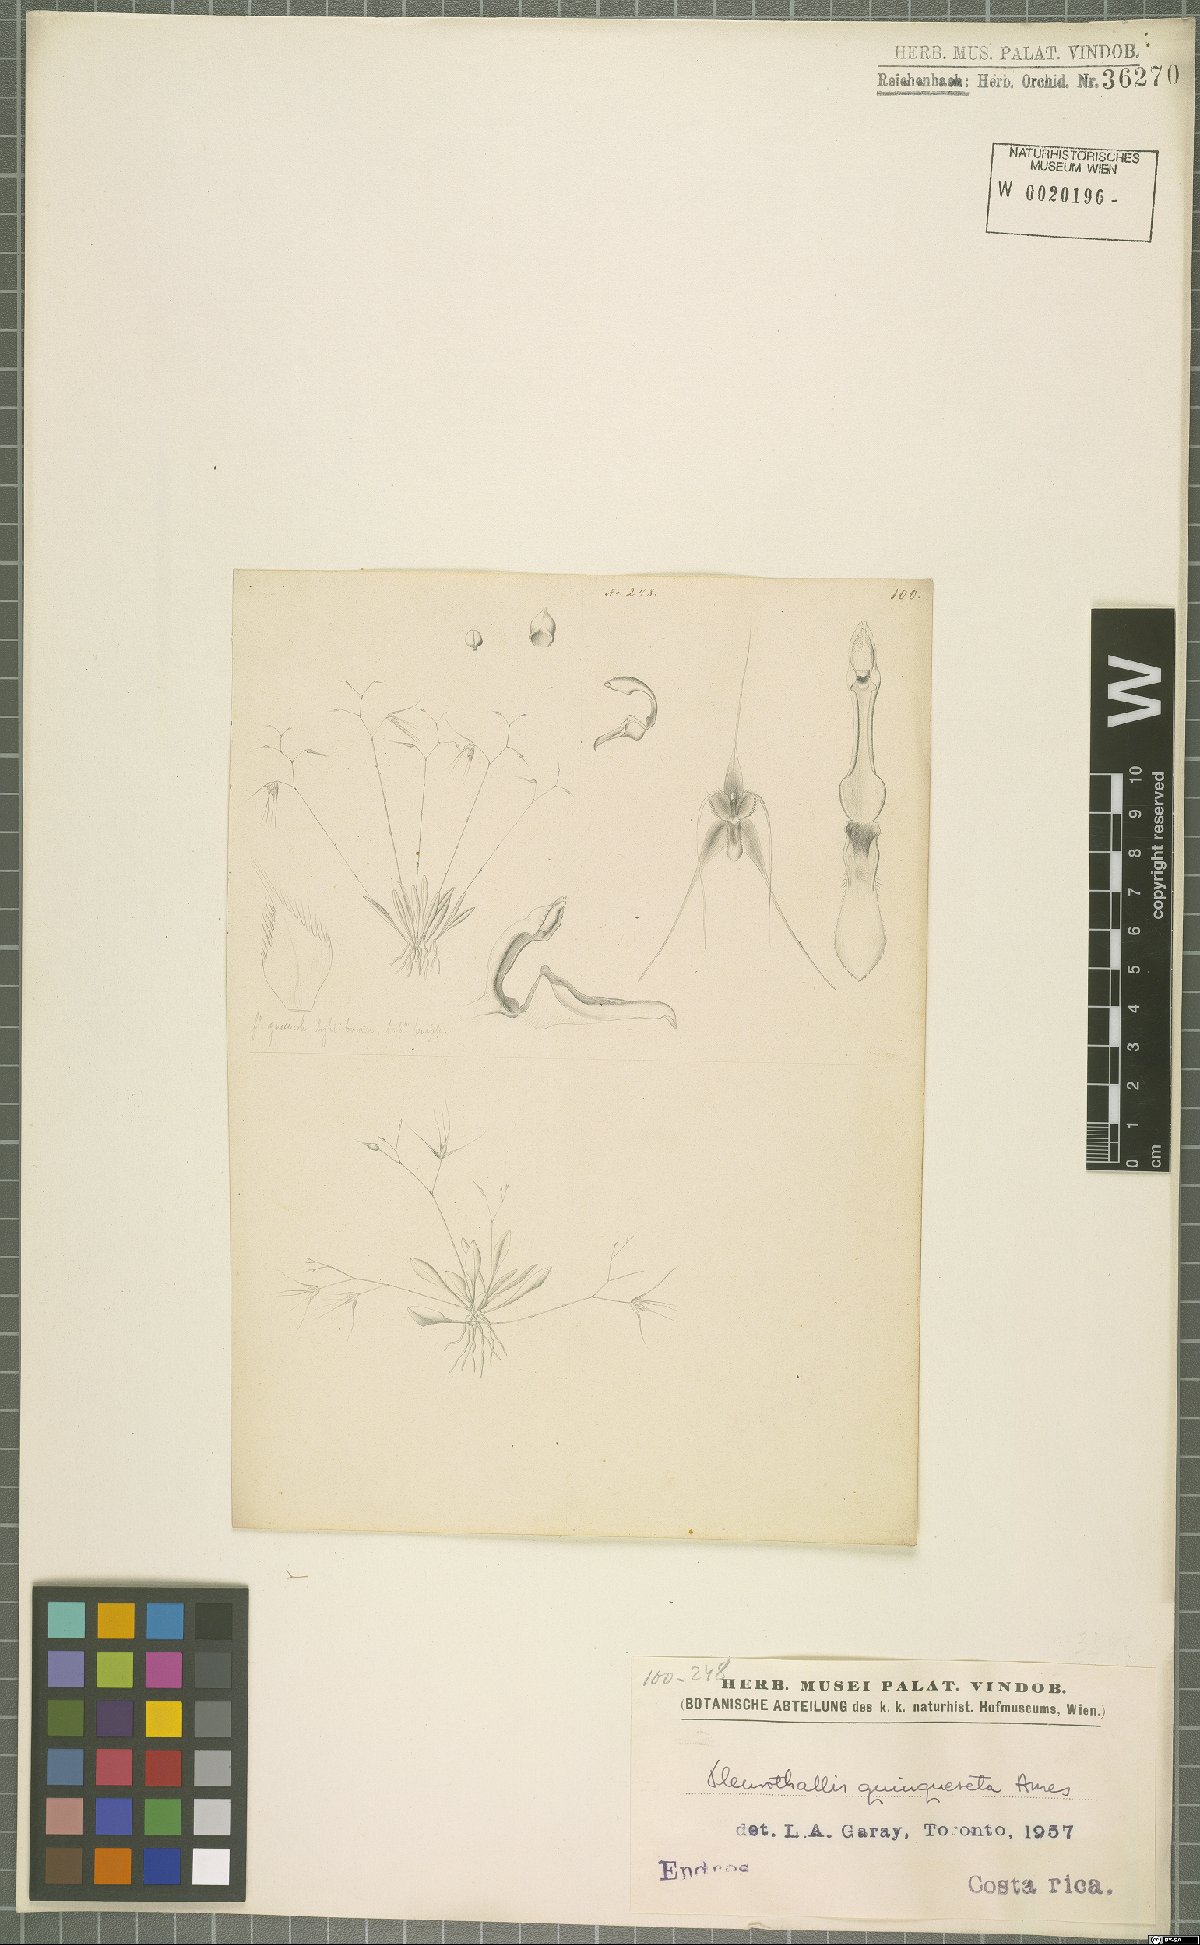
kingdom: Plantae
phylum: Tracheophyta
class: Liliopsida
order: Asparagales
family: Orchidaceae
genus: Muscarella
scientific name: Muscarella quinqueseta
